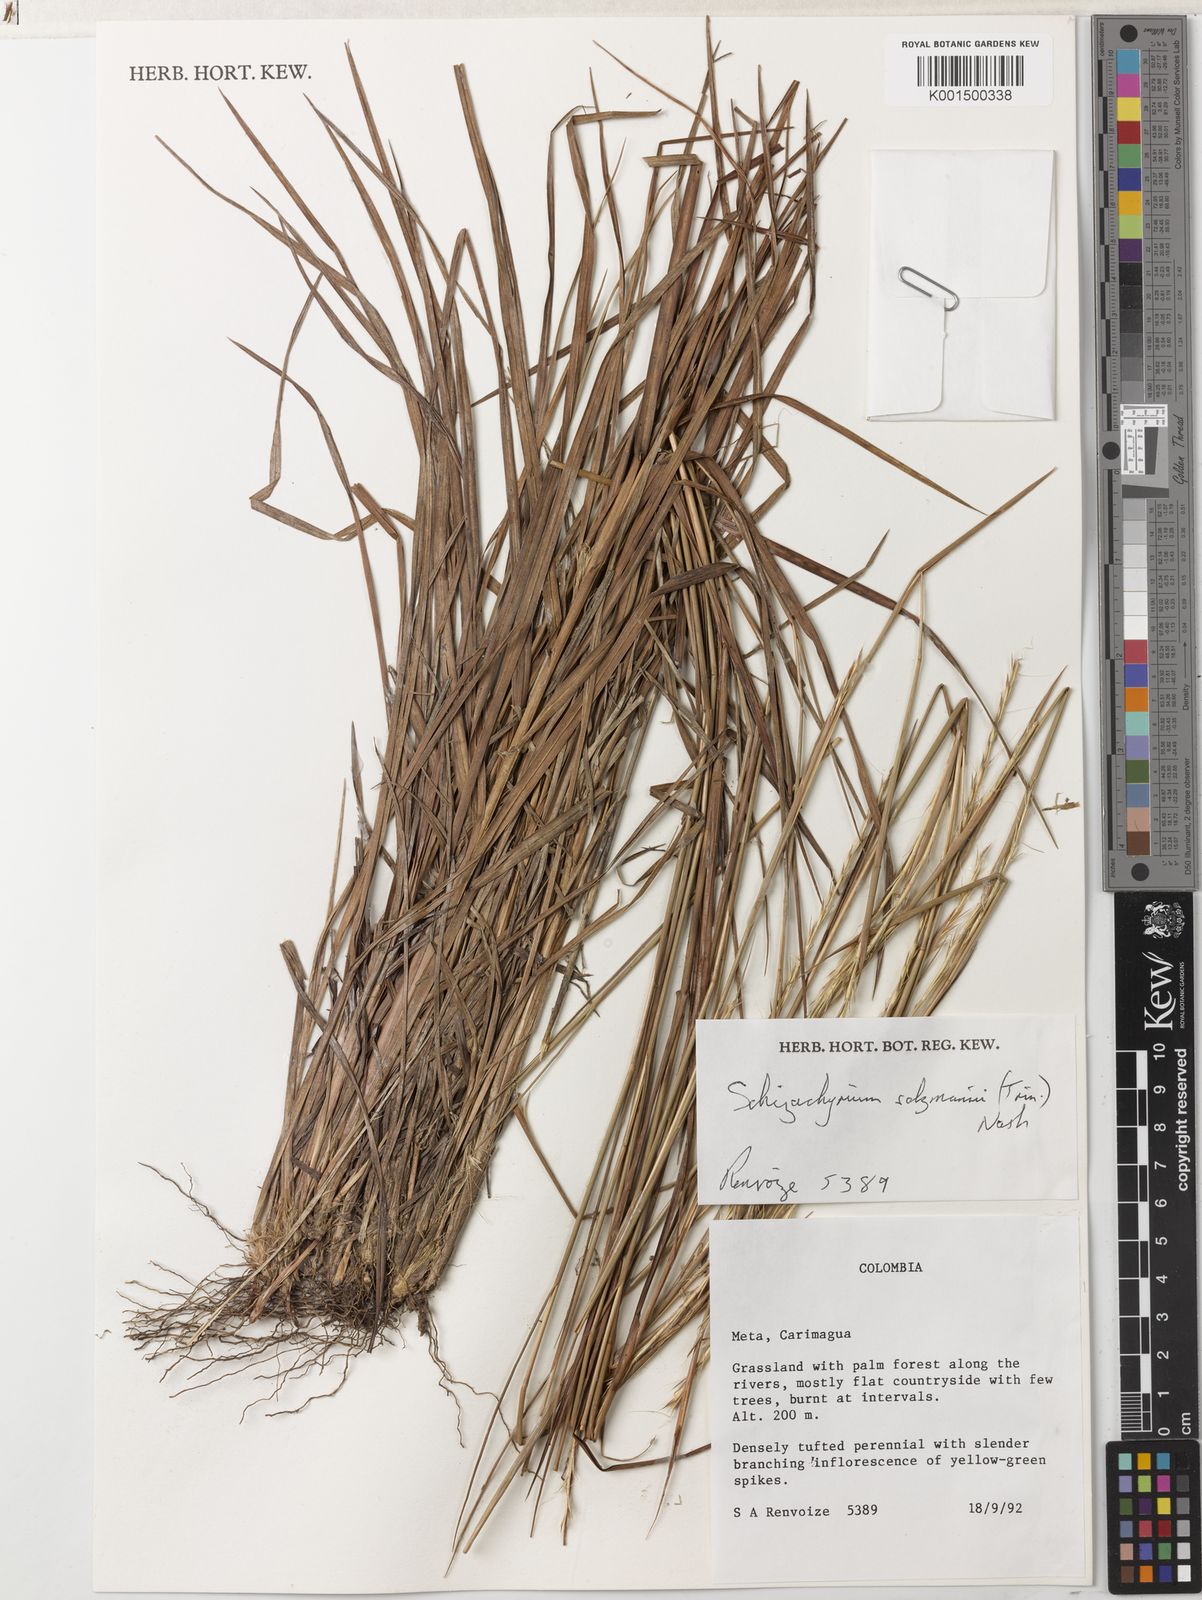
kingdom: Plantae
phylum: Tracheophyta
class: Liliopsida
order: Poales
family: Poaceae
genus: Andropogon
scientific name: Andropogon salzmannii
